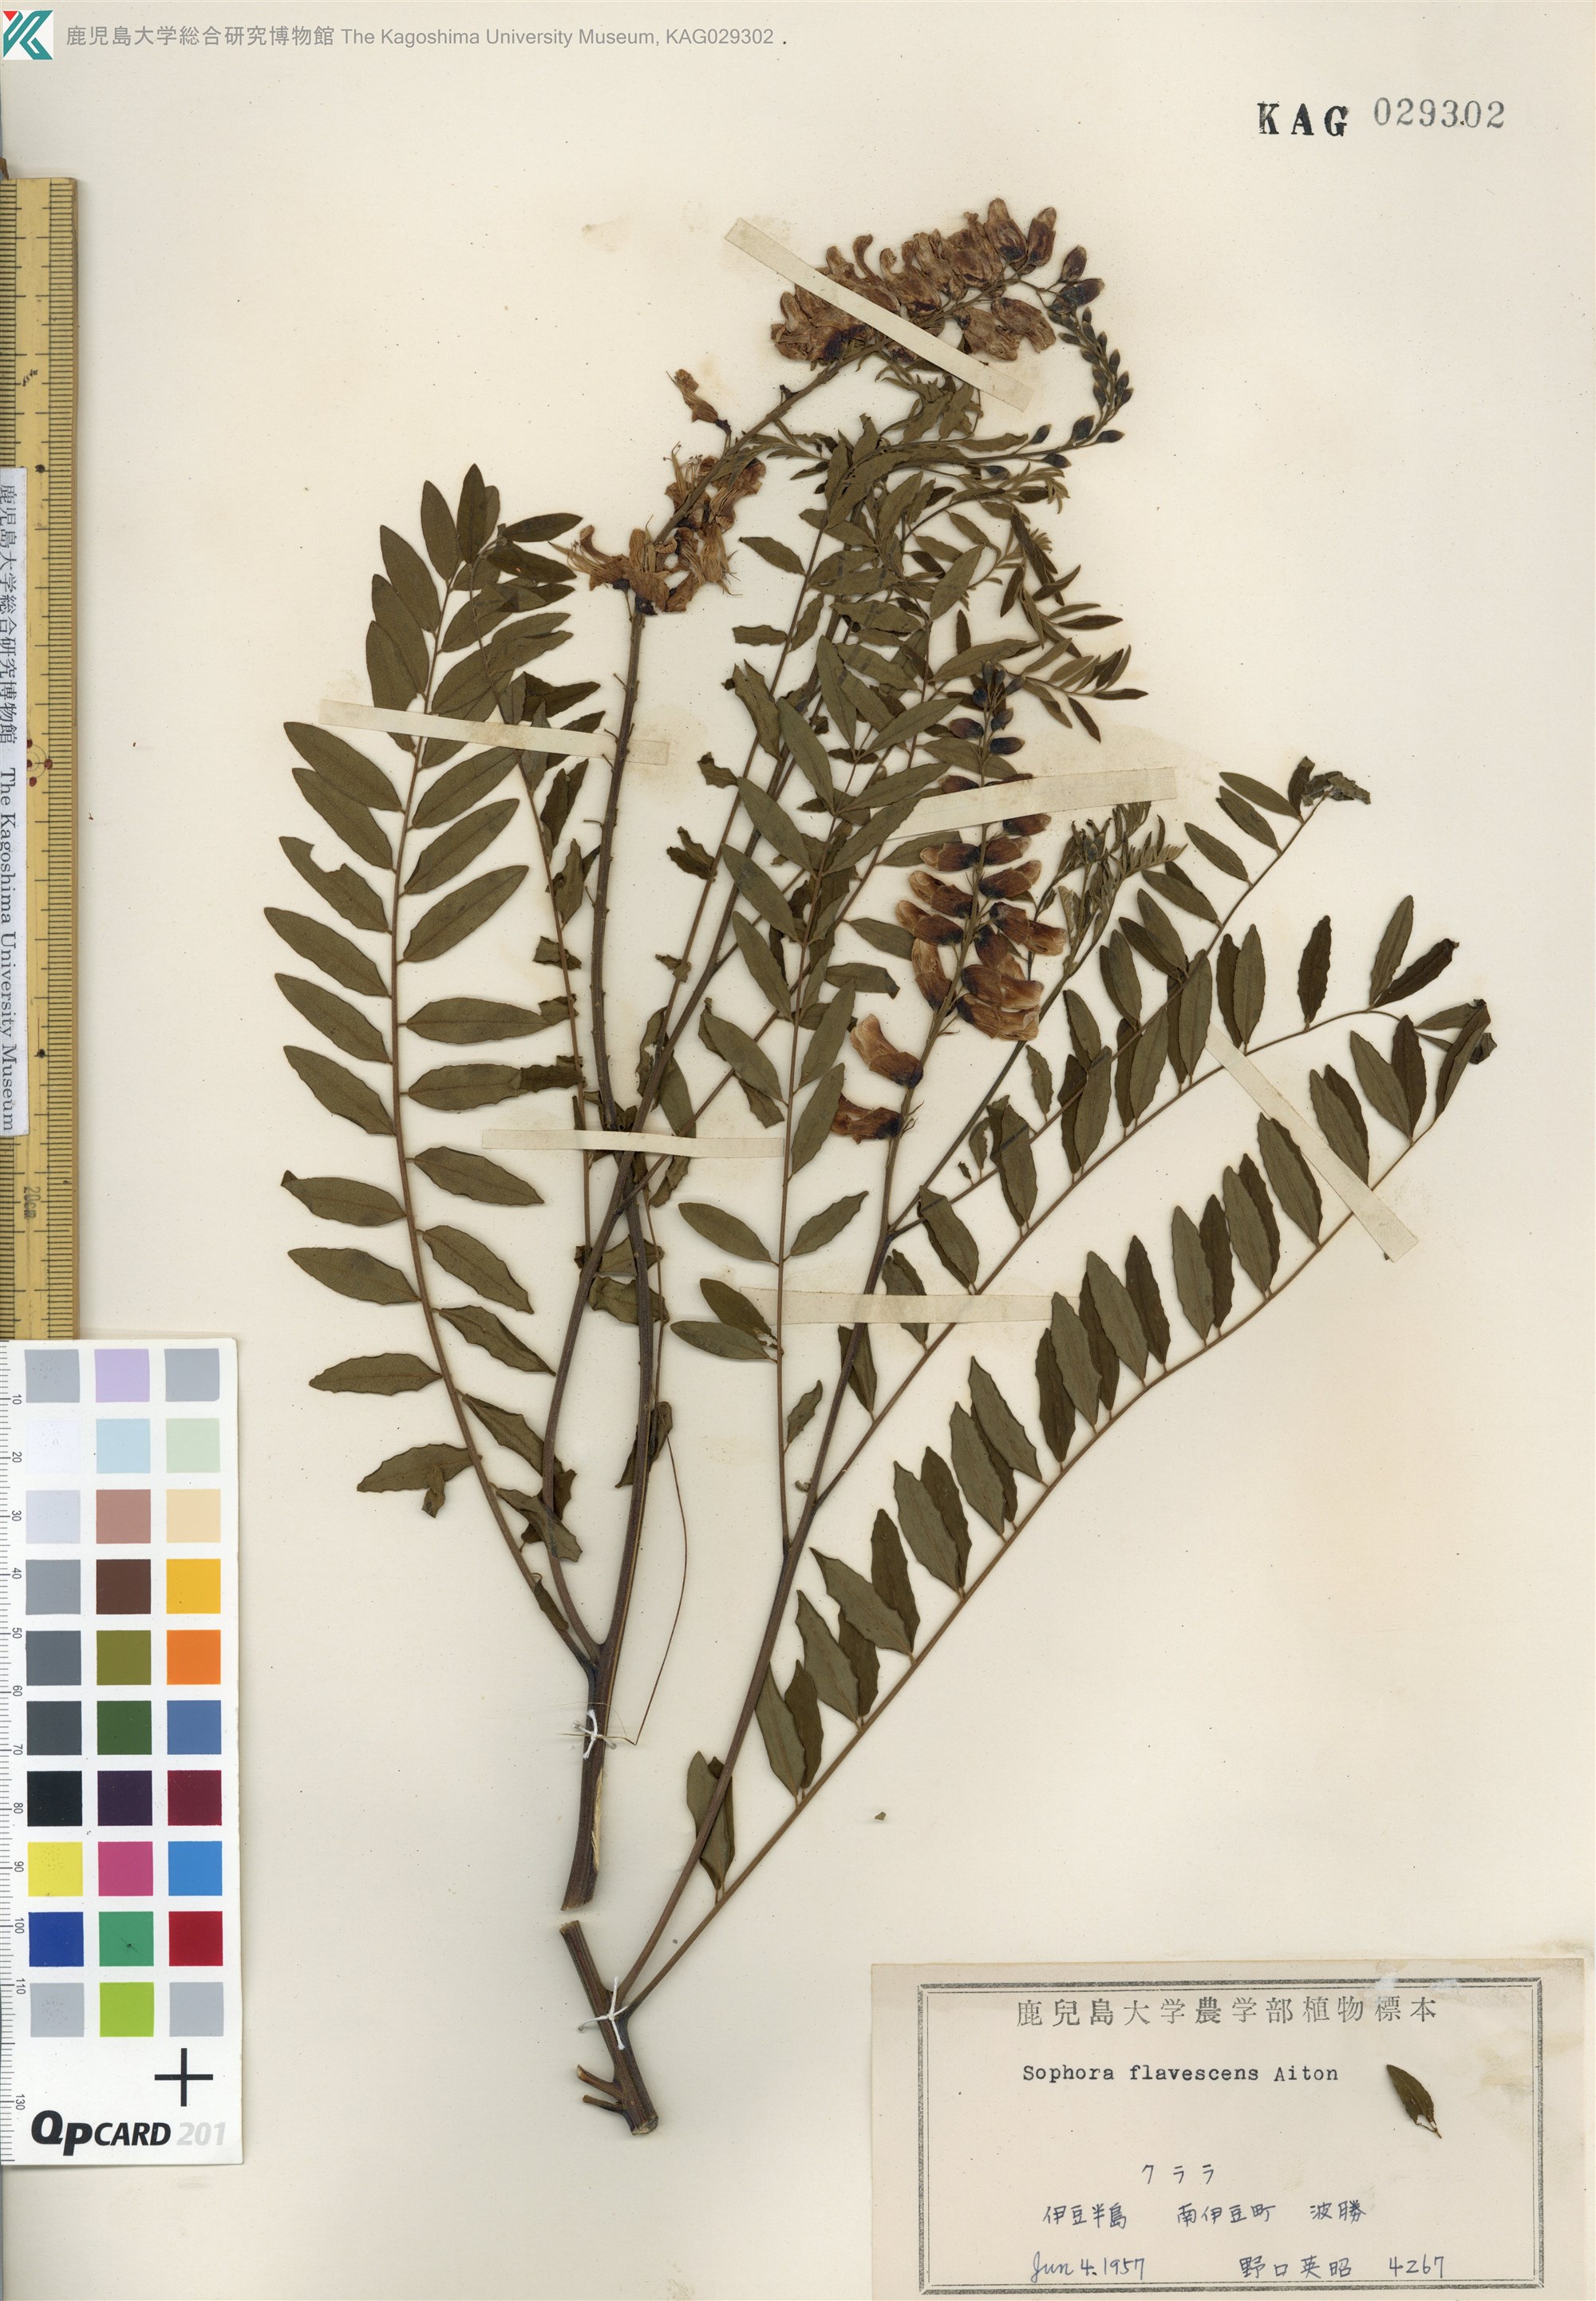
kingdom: Plantae
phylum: Tracheophyta
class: Magnoliopsida
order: Fabales
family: Fabaceae
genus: Sophora
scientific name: Sophora flavescens
